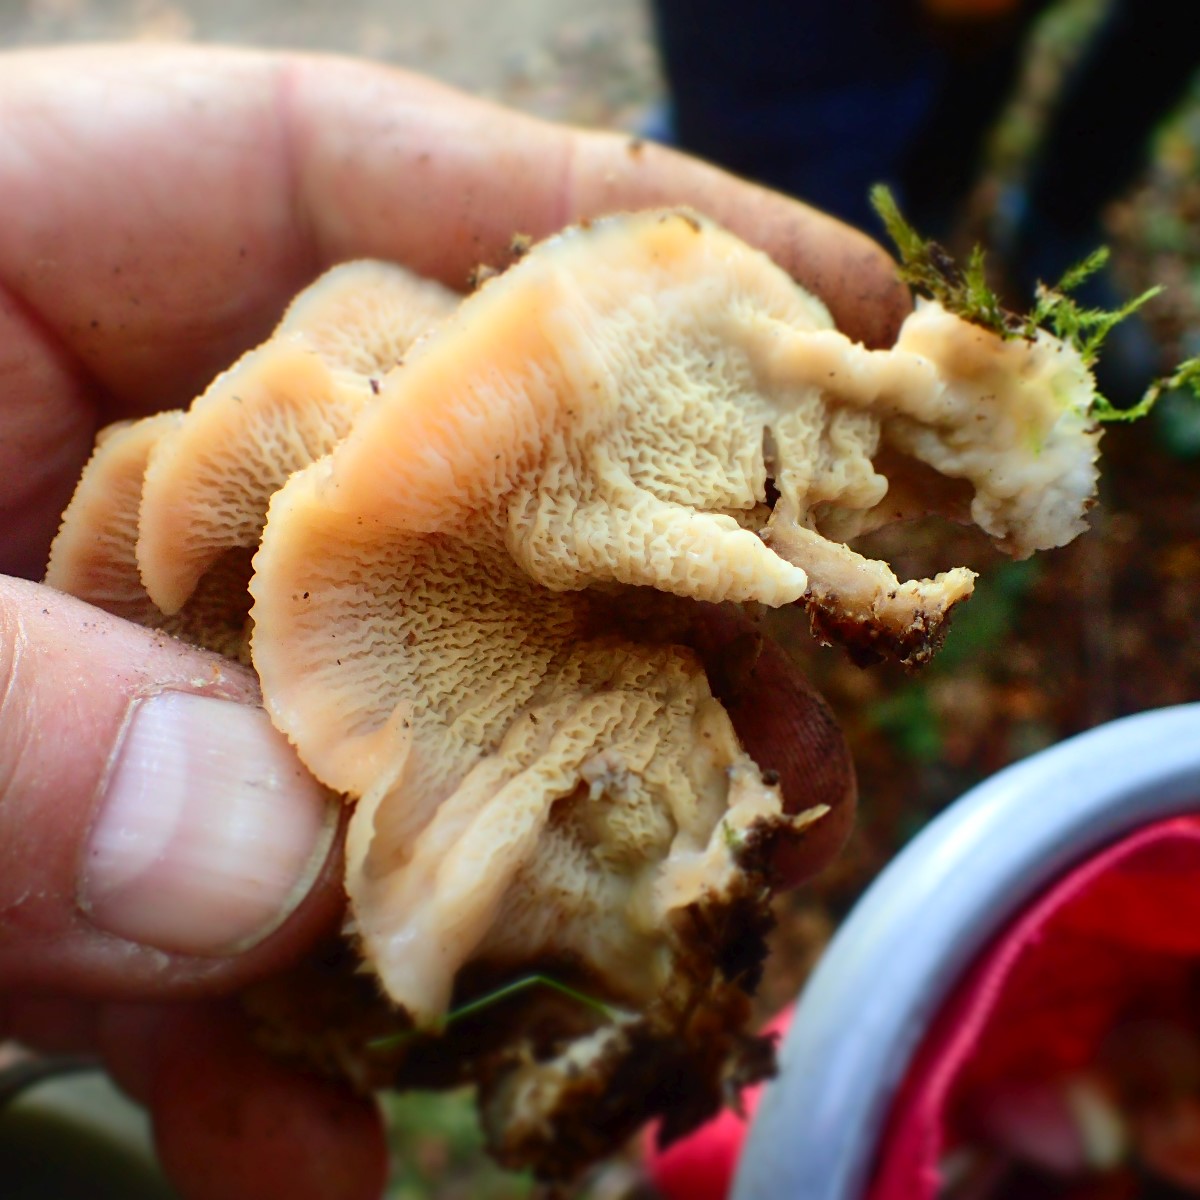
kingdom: Fungi
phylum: Basidiomycota
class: Agaricomycetes
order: Polyporales
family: Meruliaceae
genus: Phlebia
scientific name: Phlebia tremellosa
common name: bævrende åresvamp
